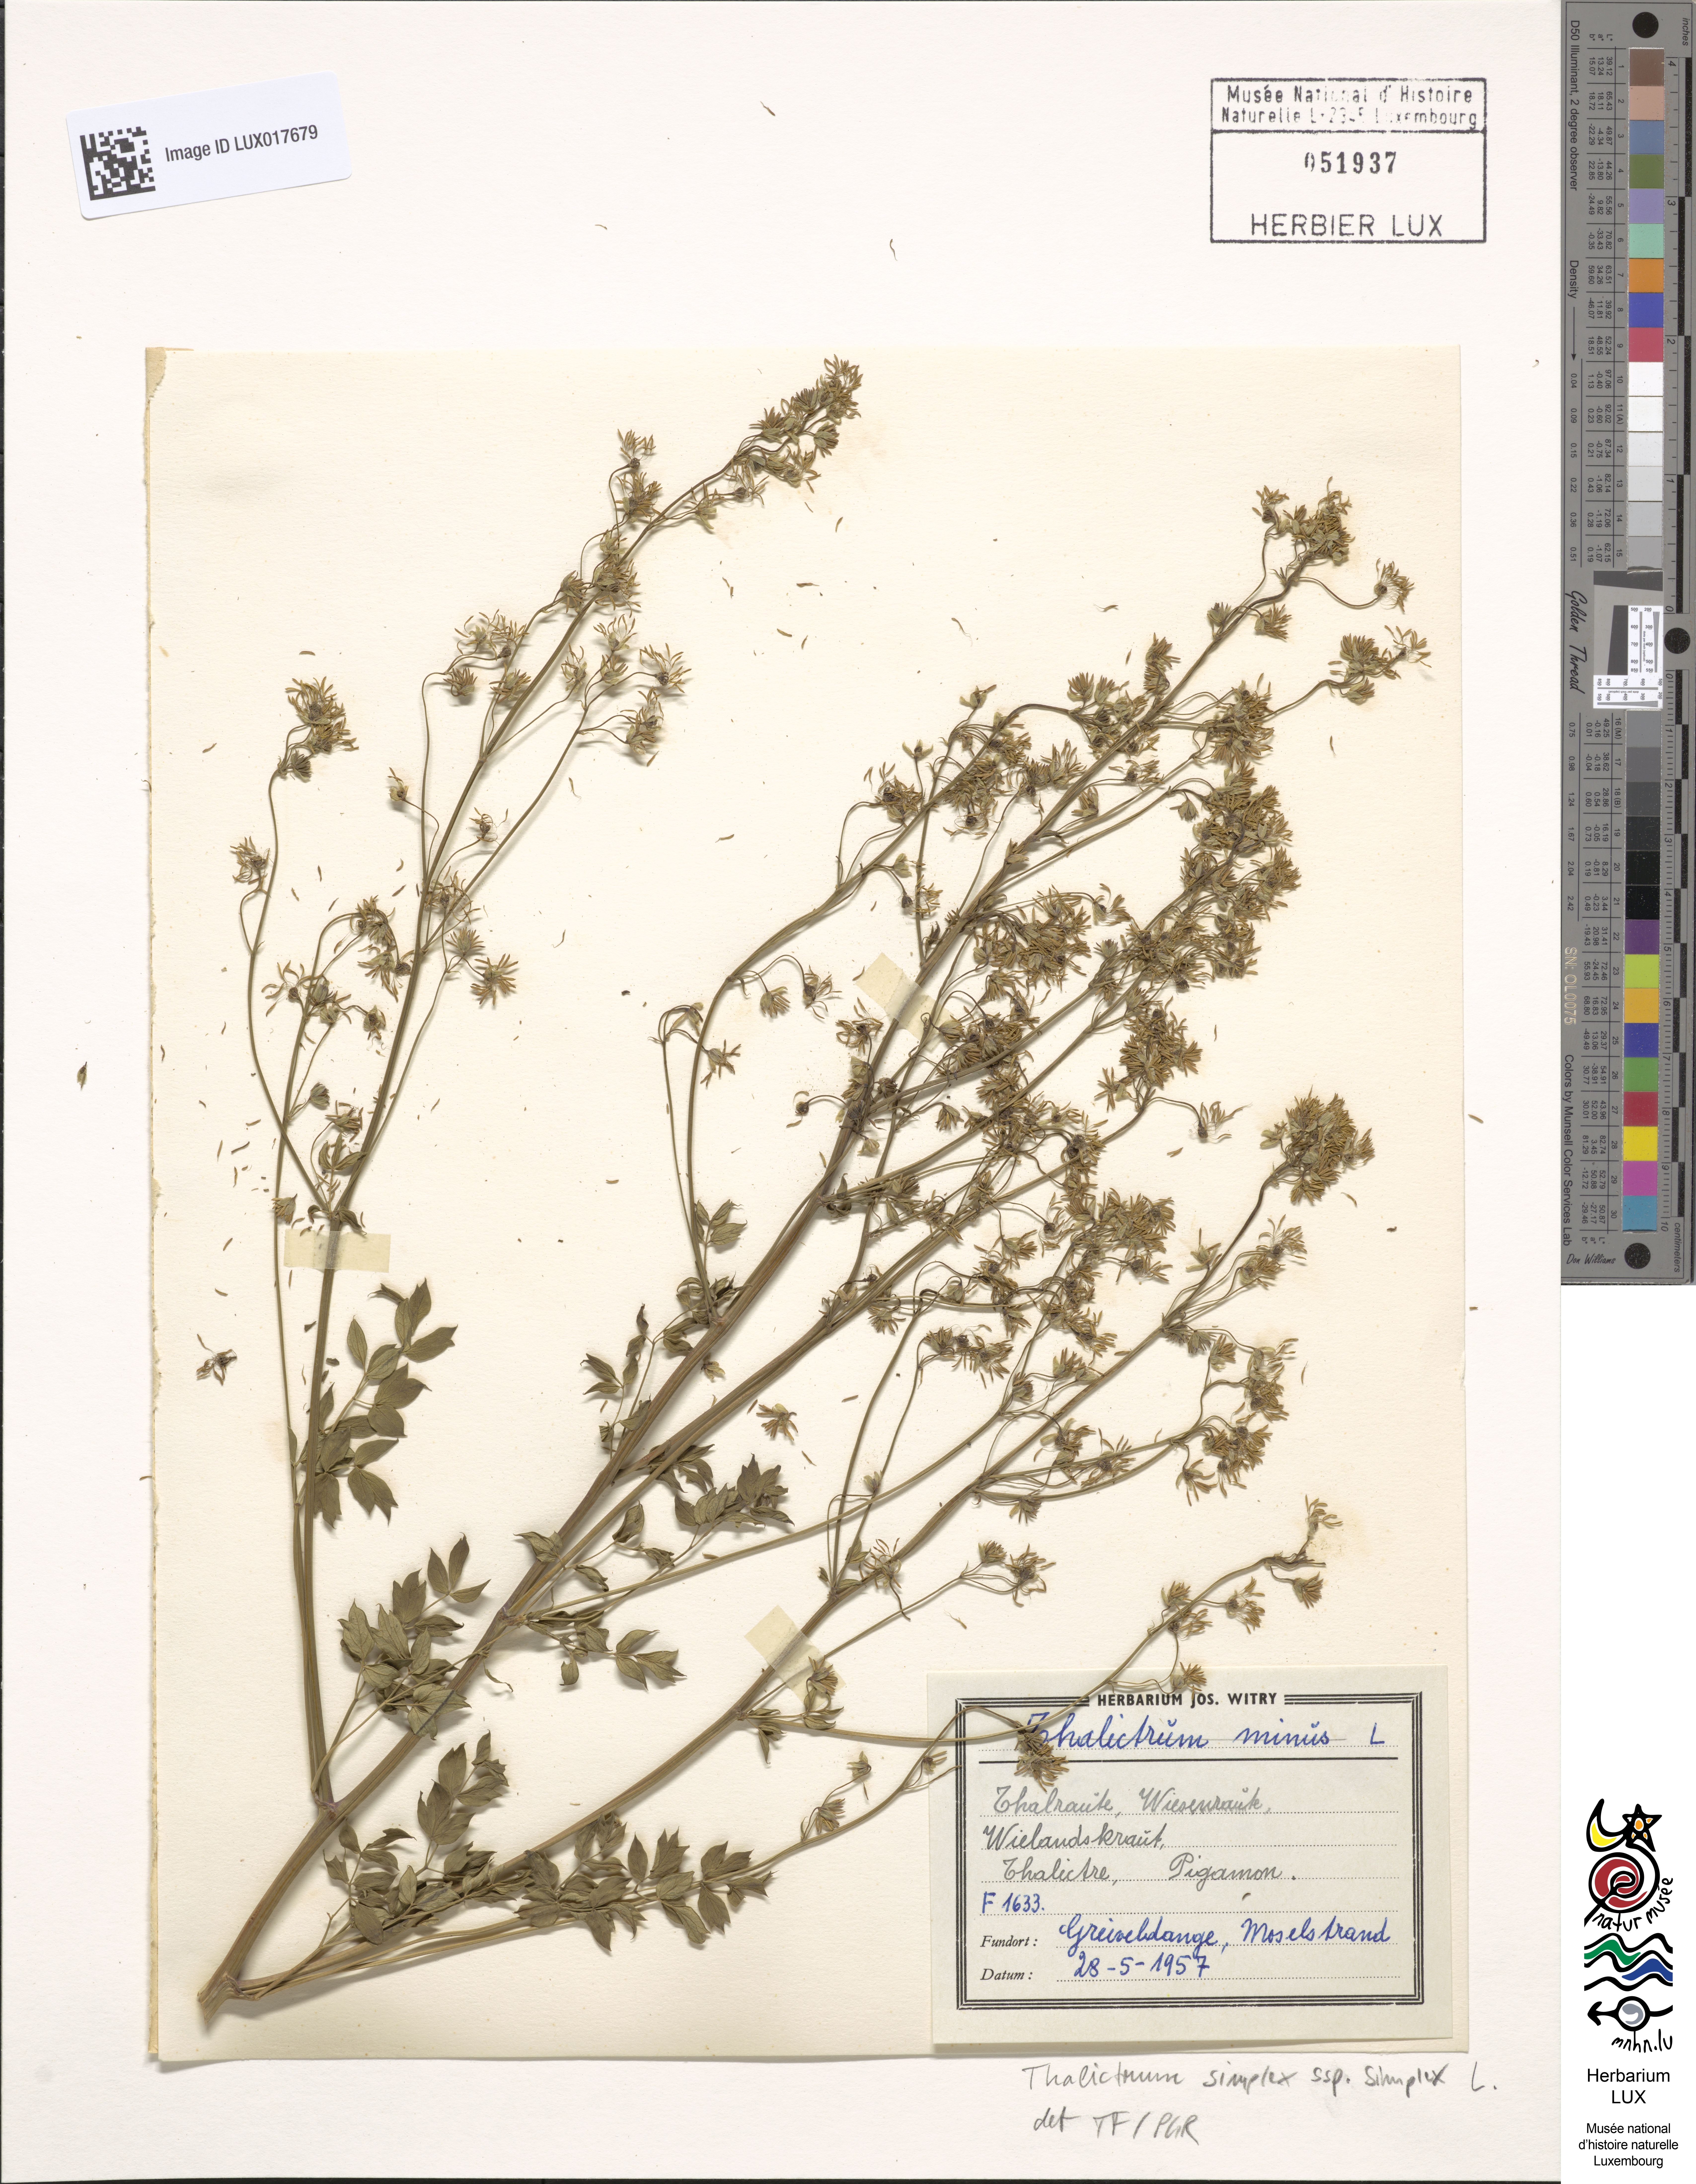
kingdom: Plantae
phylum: Tracheophyta
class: Magnoliopsida
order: Ranunculales
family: Ranunculaceae
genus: Thalictrum
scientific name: Thalictrum simplex
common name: Small meadow-rue
